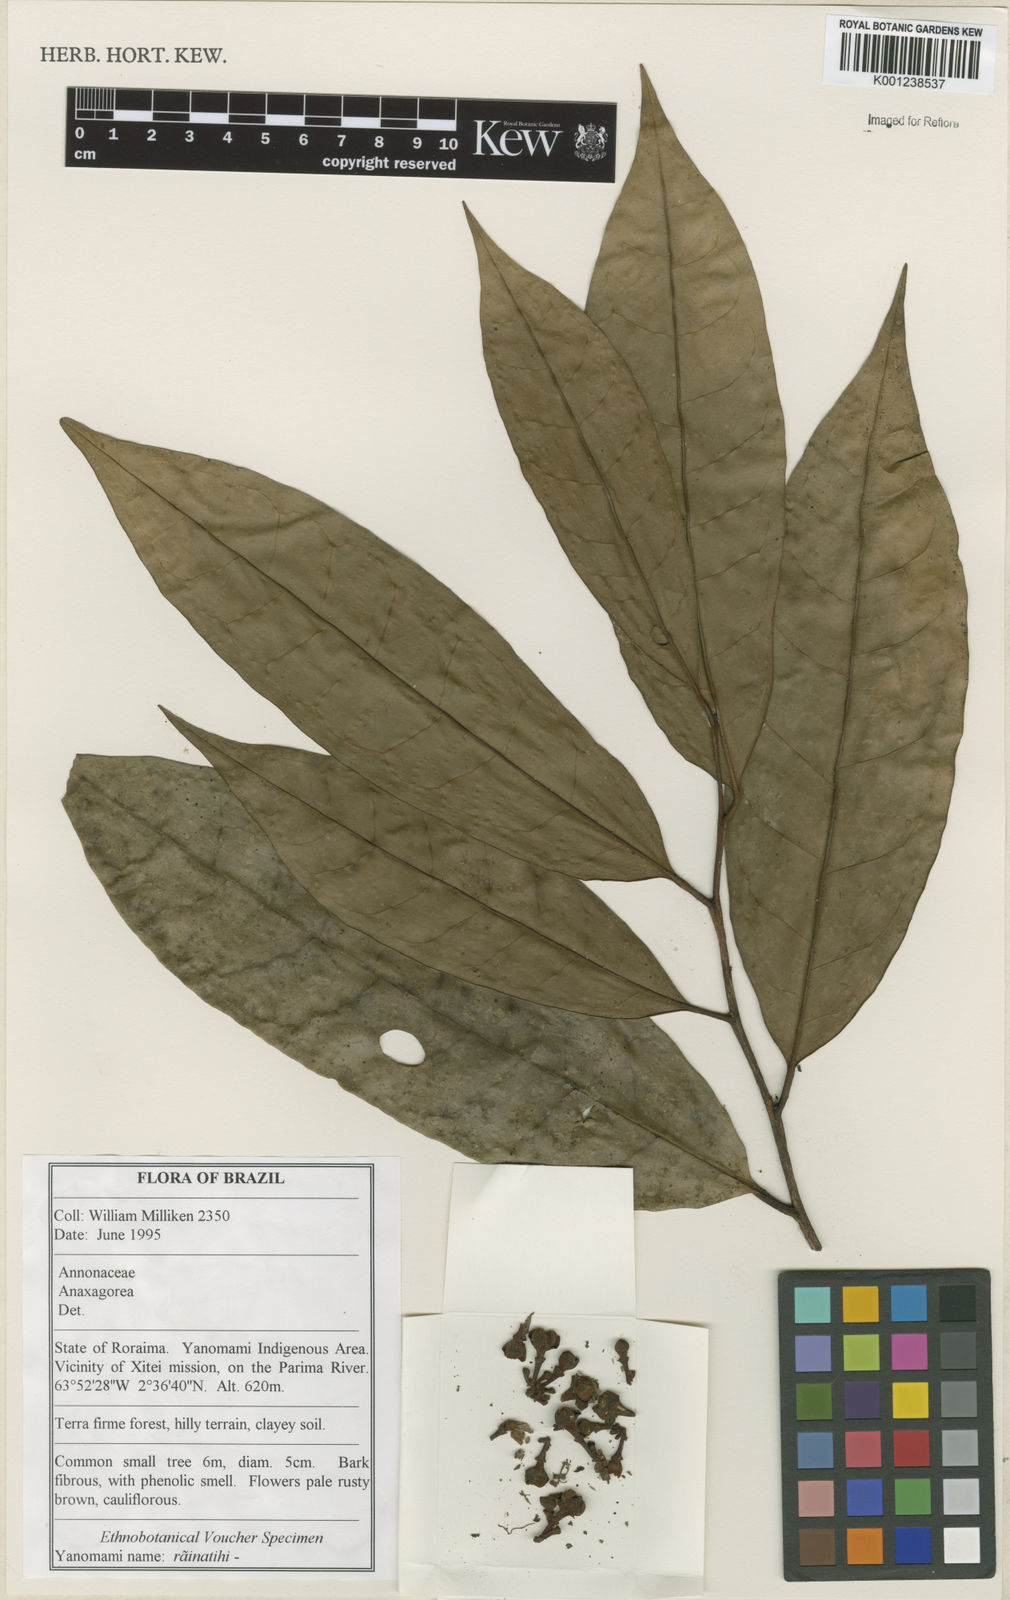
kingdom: Plantae
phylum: Tracheophyta
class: Magnoliopsida
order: Magnoliales
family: Annonaceae
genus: Anaxagorea
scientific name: Anaxagorea
